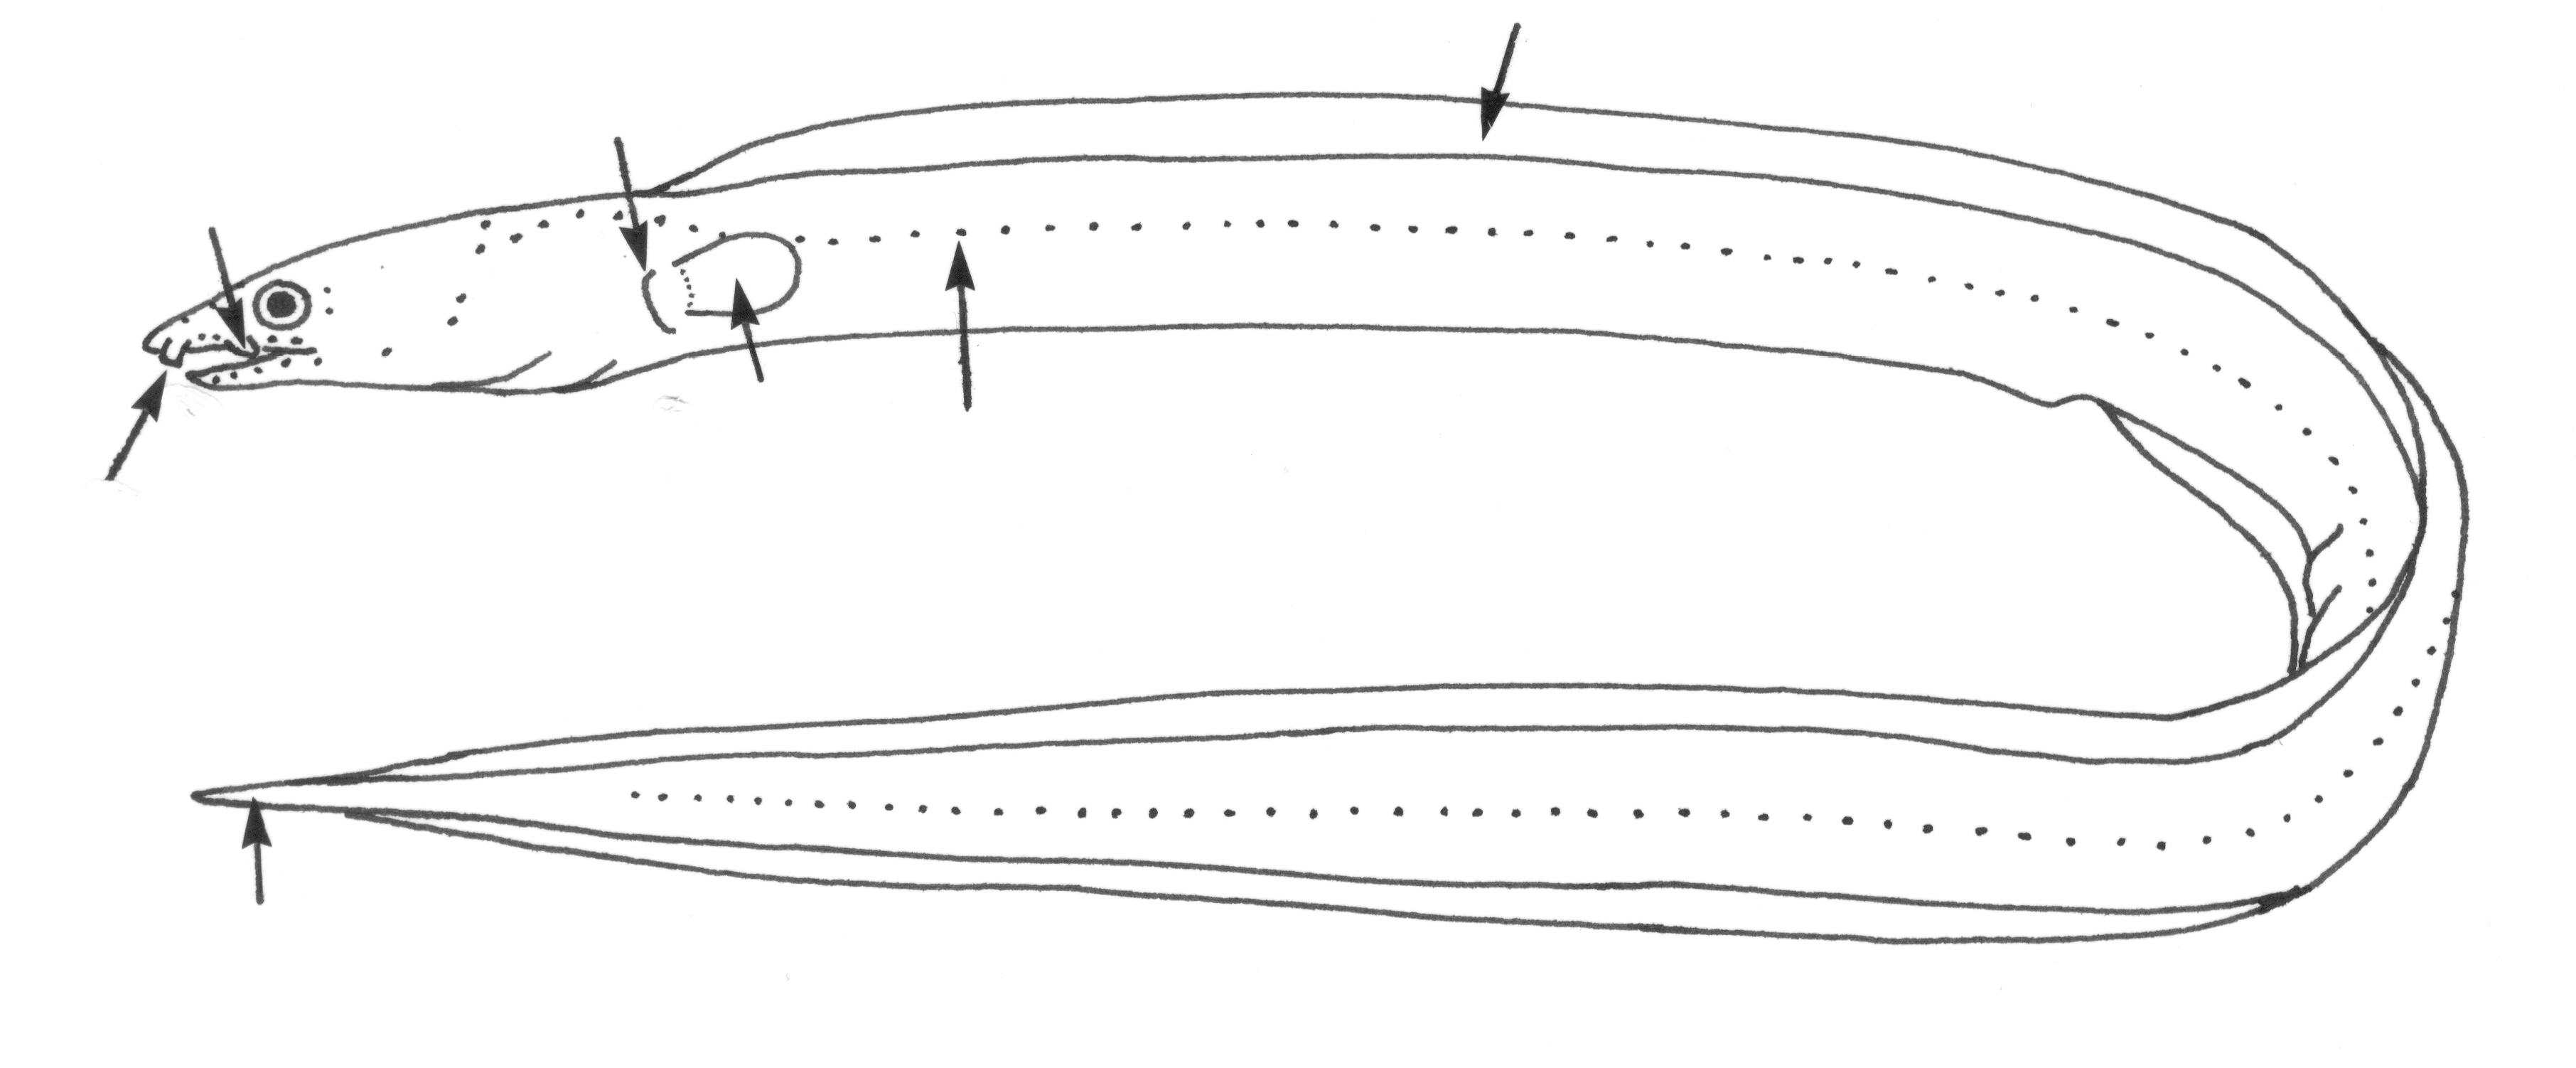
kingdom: Animalia
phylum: Chordata
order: Anguilliformes
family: Ophichthidae
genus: Lamnostoma
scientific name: Lamnostoma
